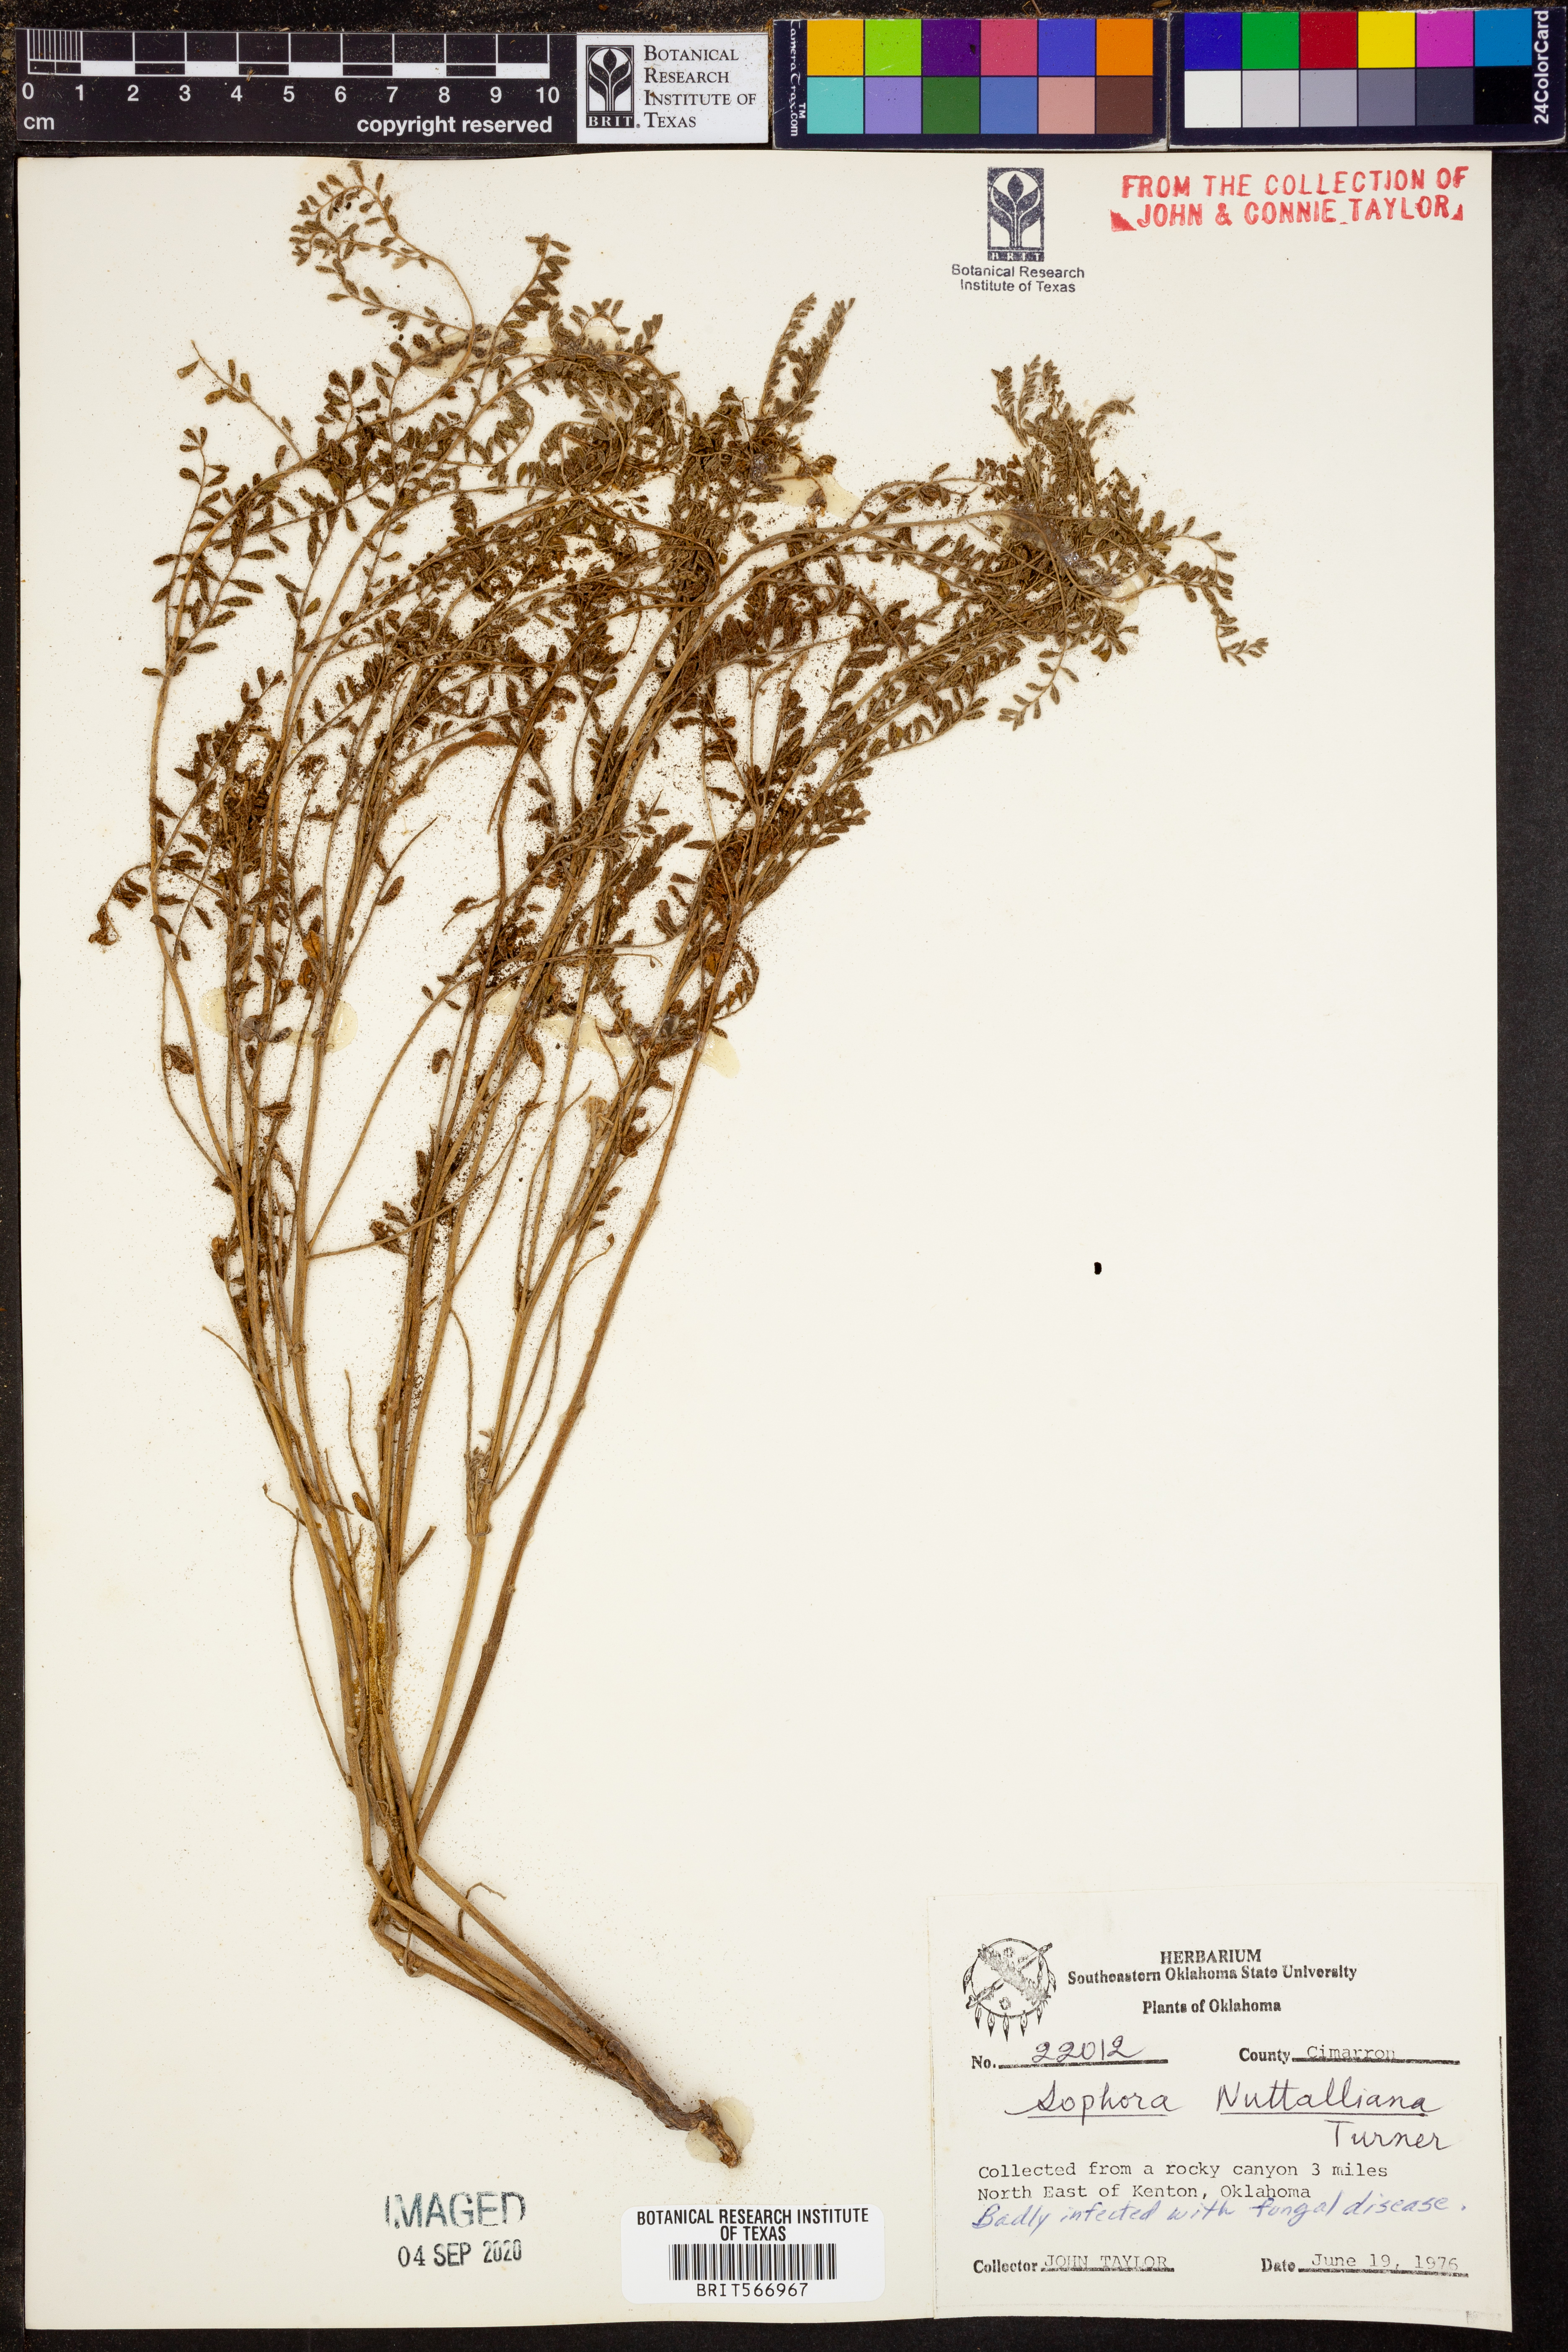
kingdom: Plantae
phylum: Tracheophyta
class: Magnoliopsida
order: Fabales
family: Fabaceae
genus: Sophora
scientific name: Sophora nuttalliana
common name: Silky sophora
